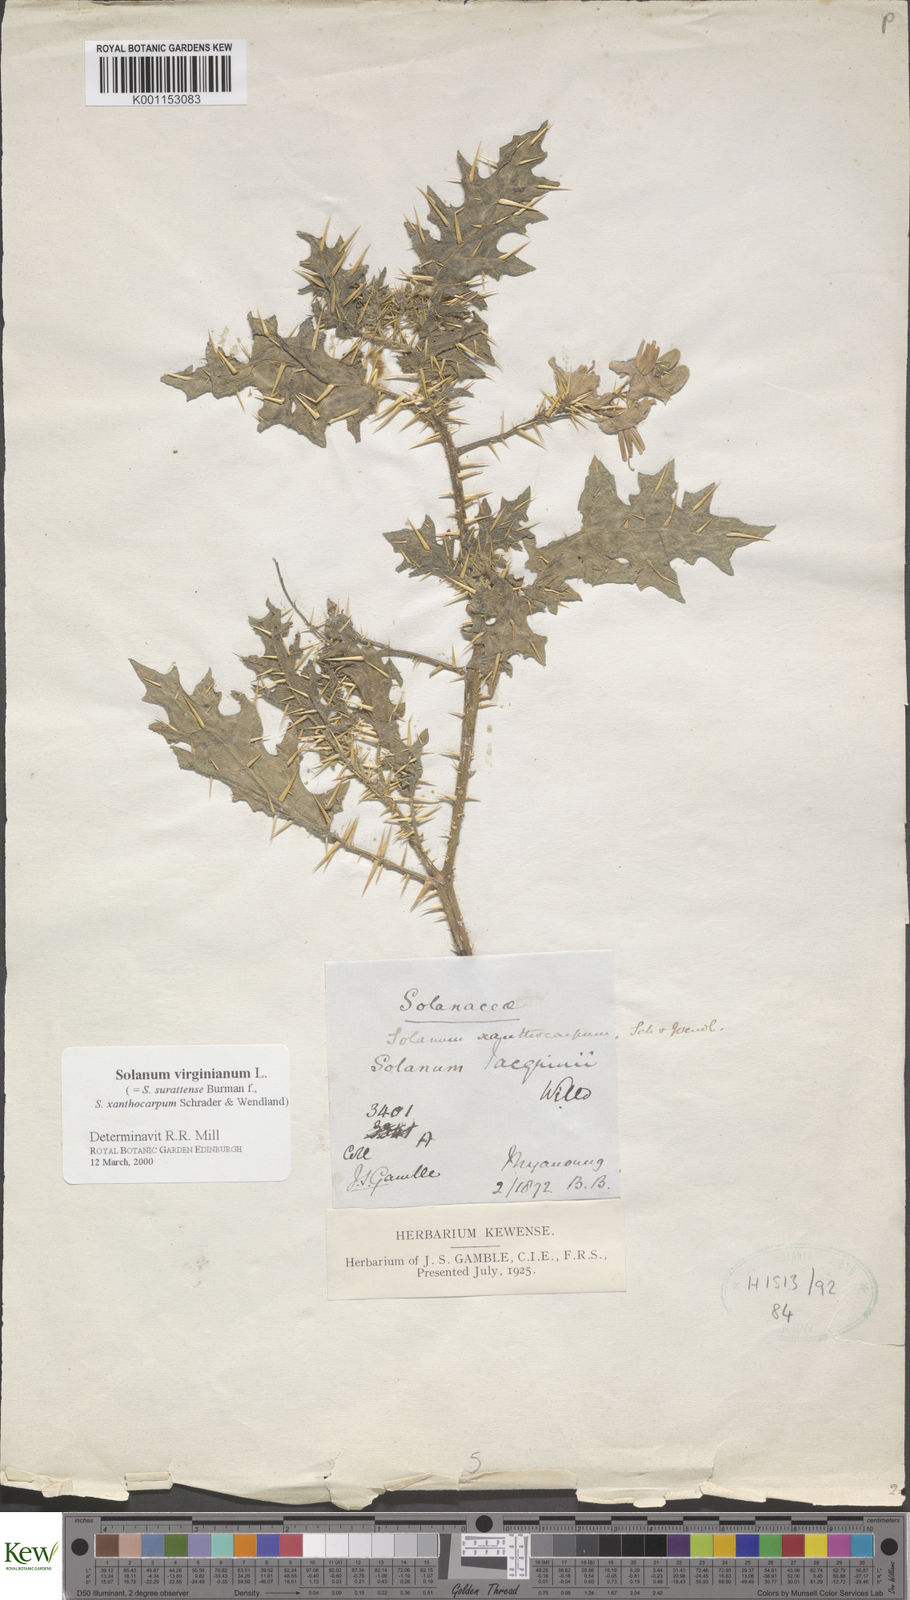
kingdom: Plantae
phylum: Tracheophyta
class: Magnoliopsida
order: Solanales
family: Solanaceae
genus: Solanum
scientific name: Solanum virginianum
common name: Surattense nightshade
